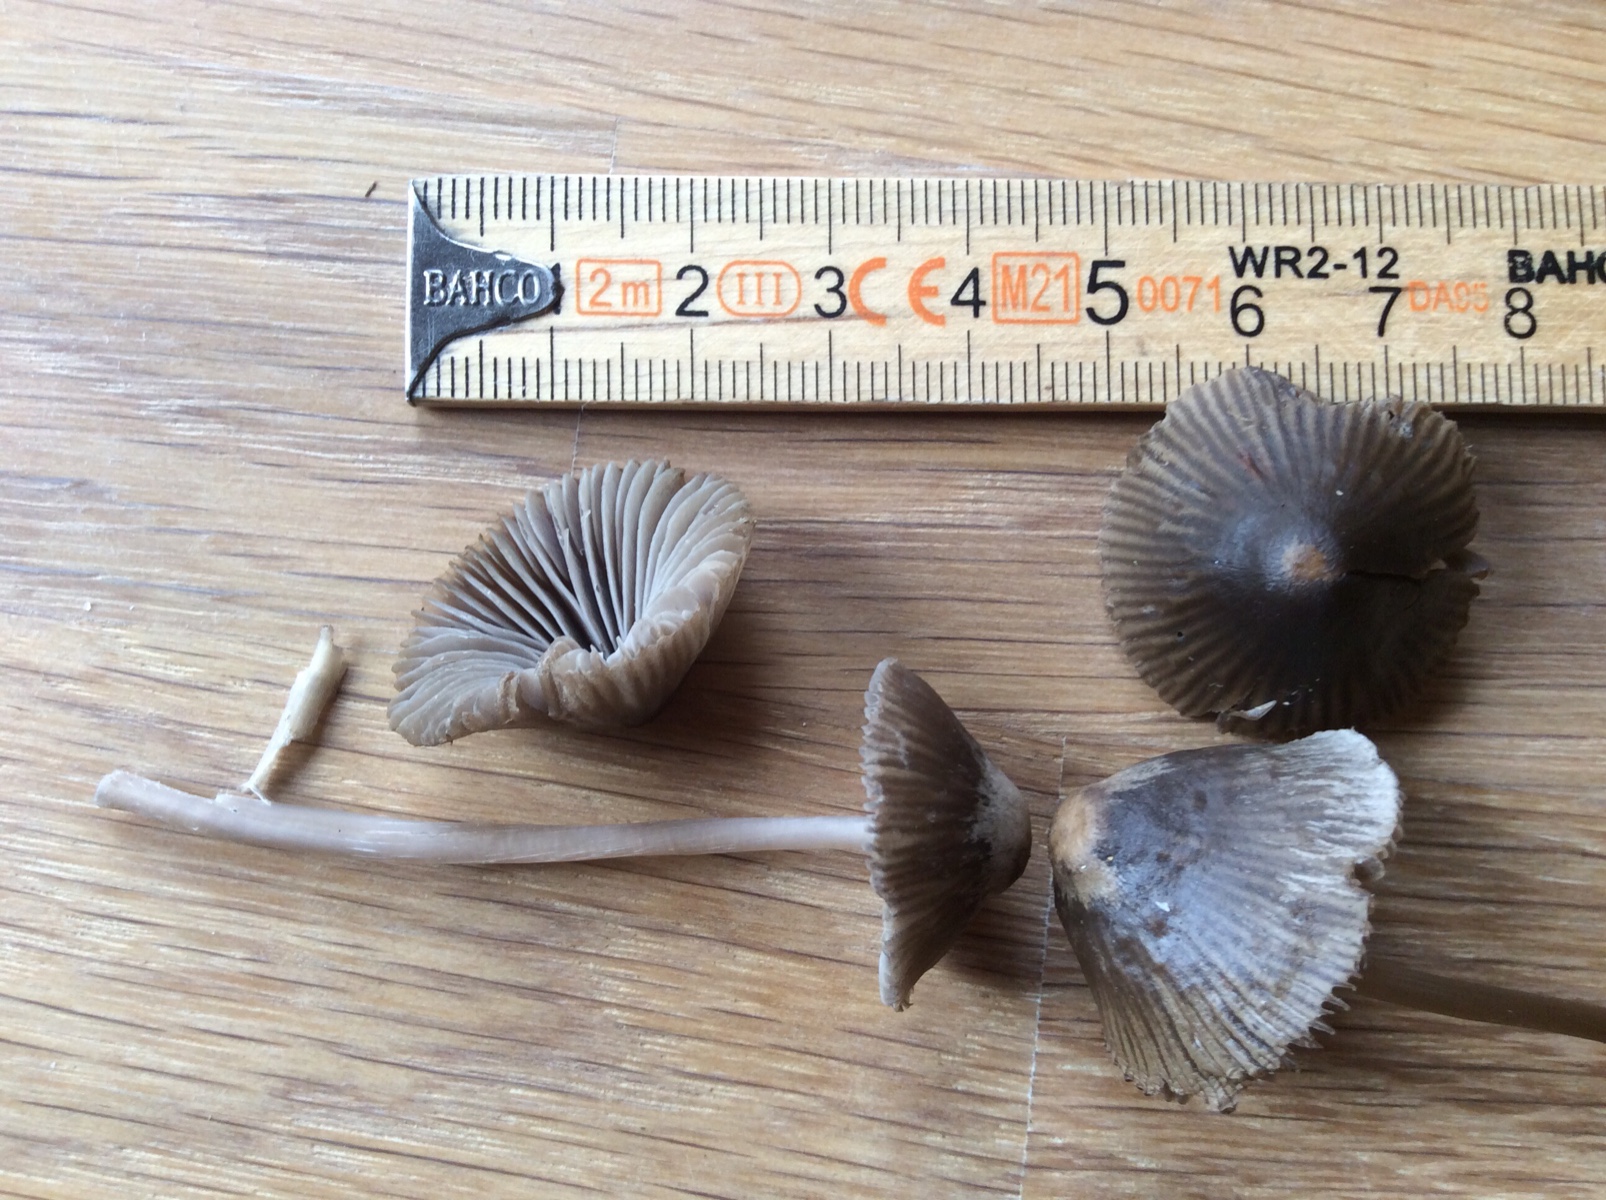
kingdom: Fungi
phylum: Basidiomycota
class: Agaricomycetes
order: Agaricales
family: Mycenaceae
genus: Mycena
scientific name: Mycena
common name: huesvamp
